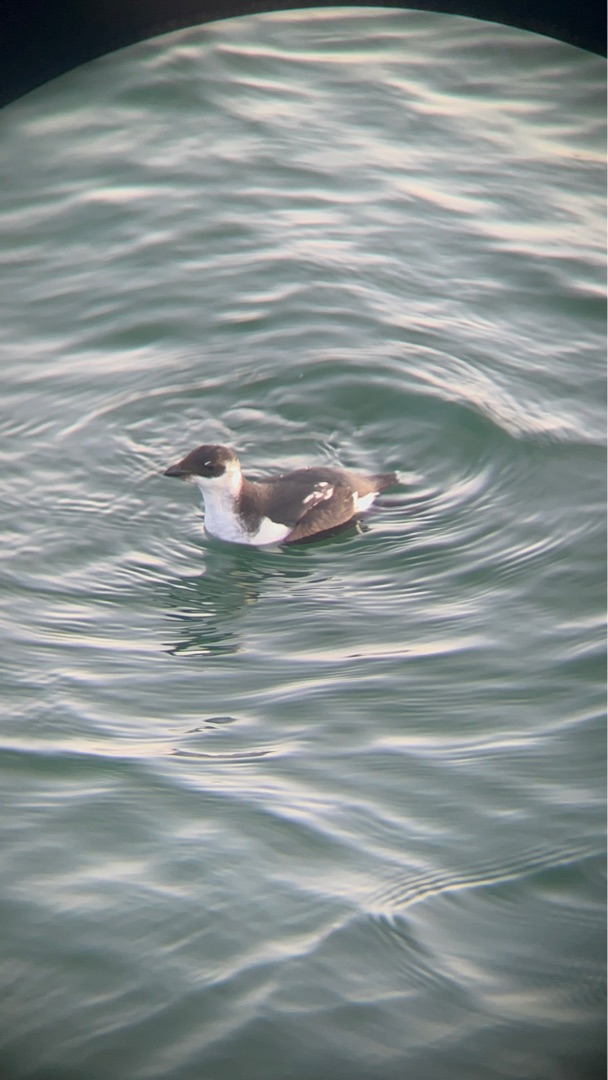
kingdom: Animalia
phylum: Chordata
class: Aves
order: Charadriiformes
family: Alcidae
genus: Alle
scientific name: Alle alle
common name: Søkonge
